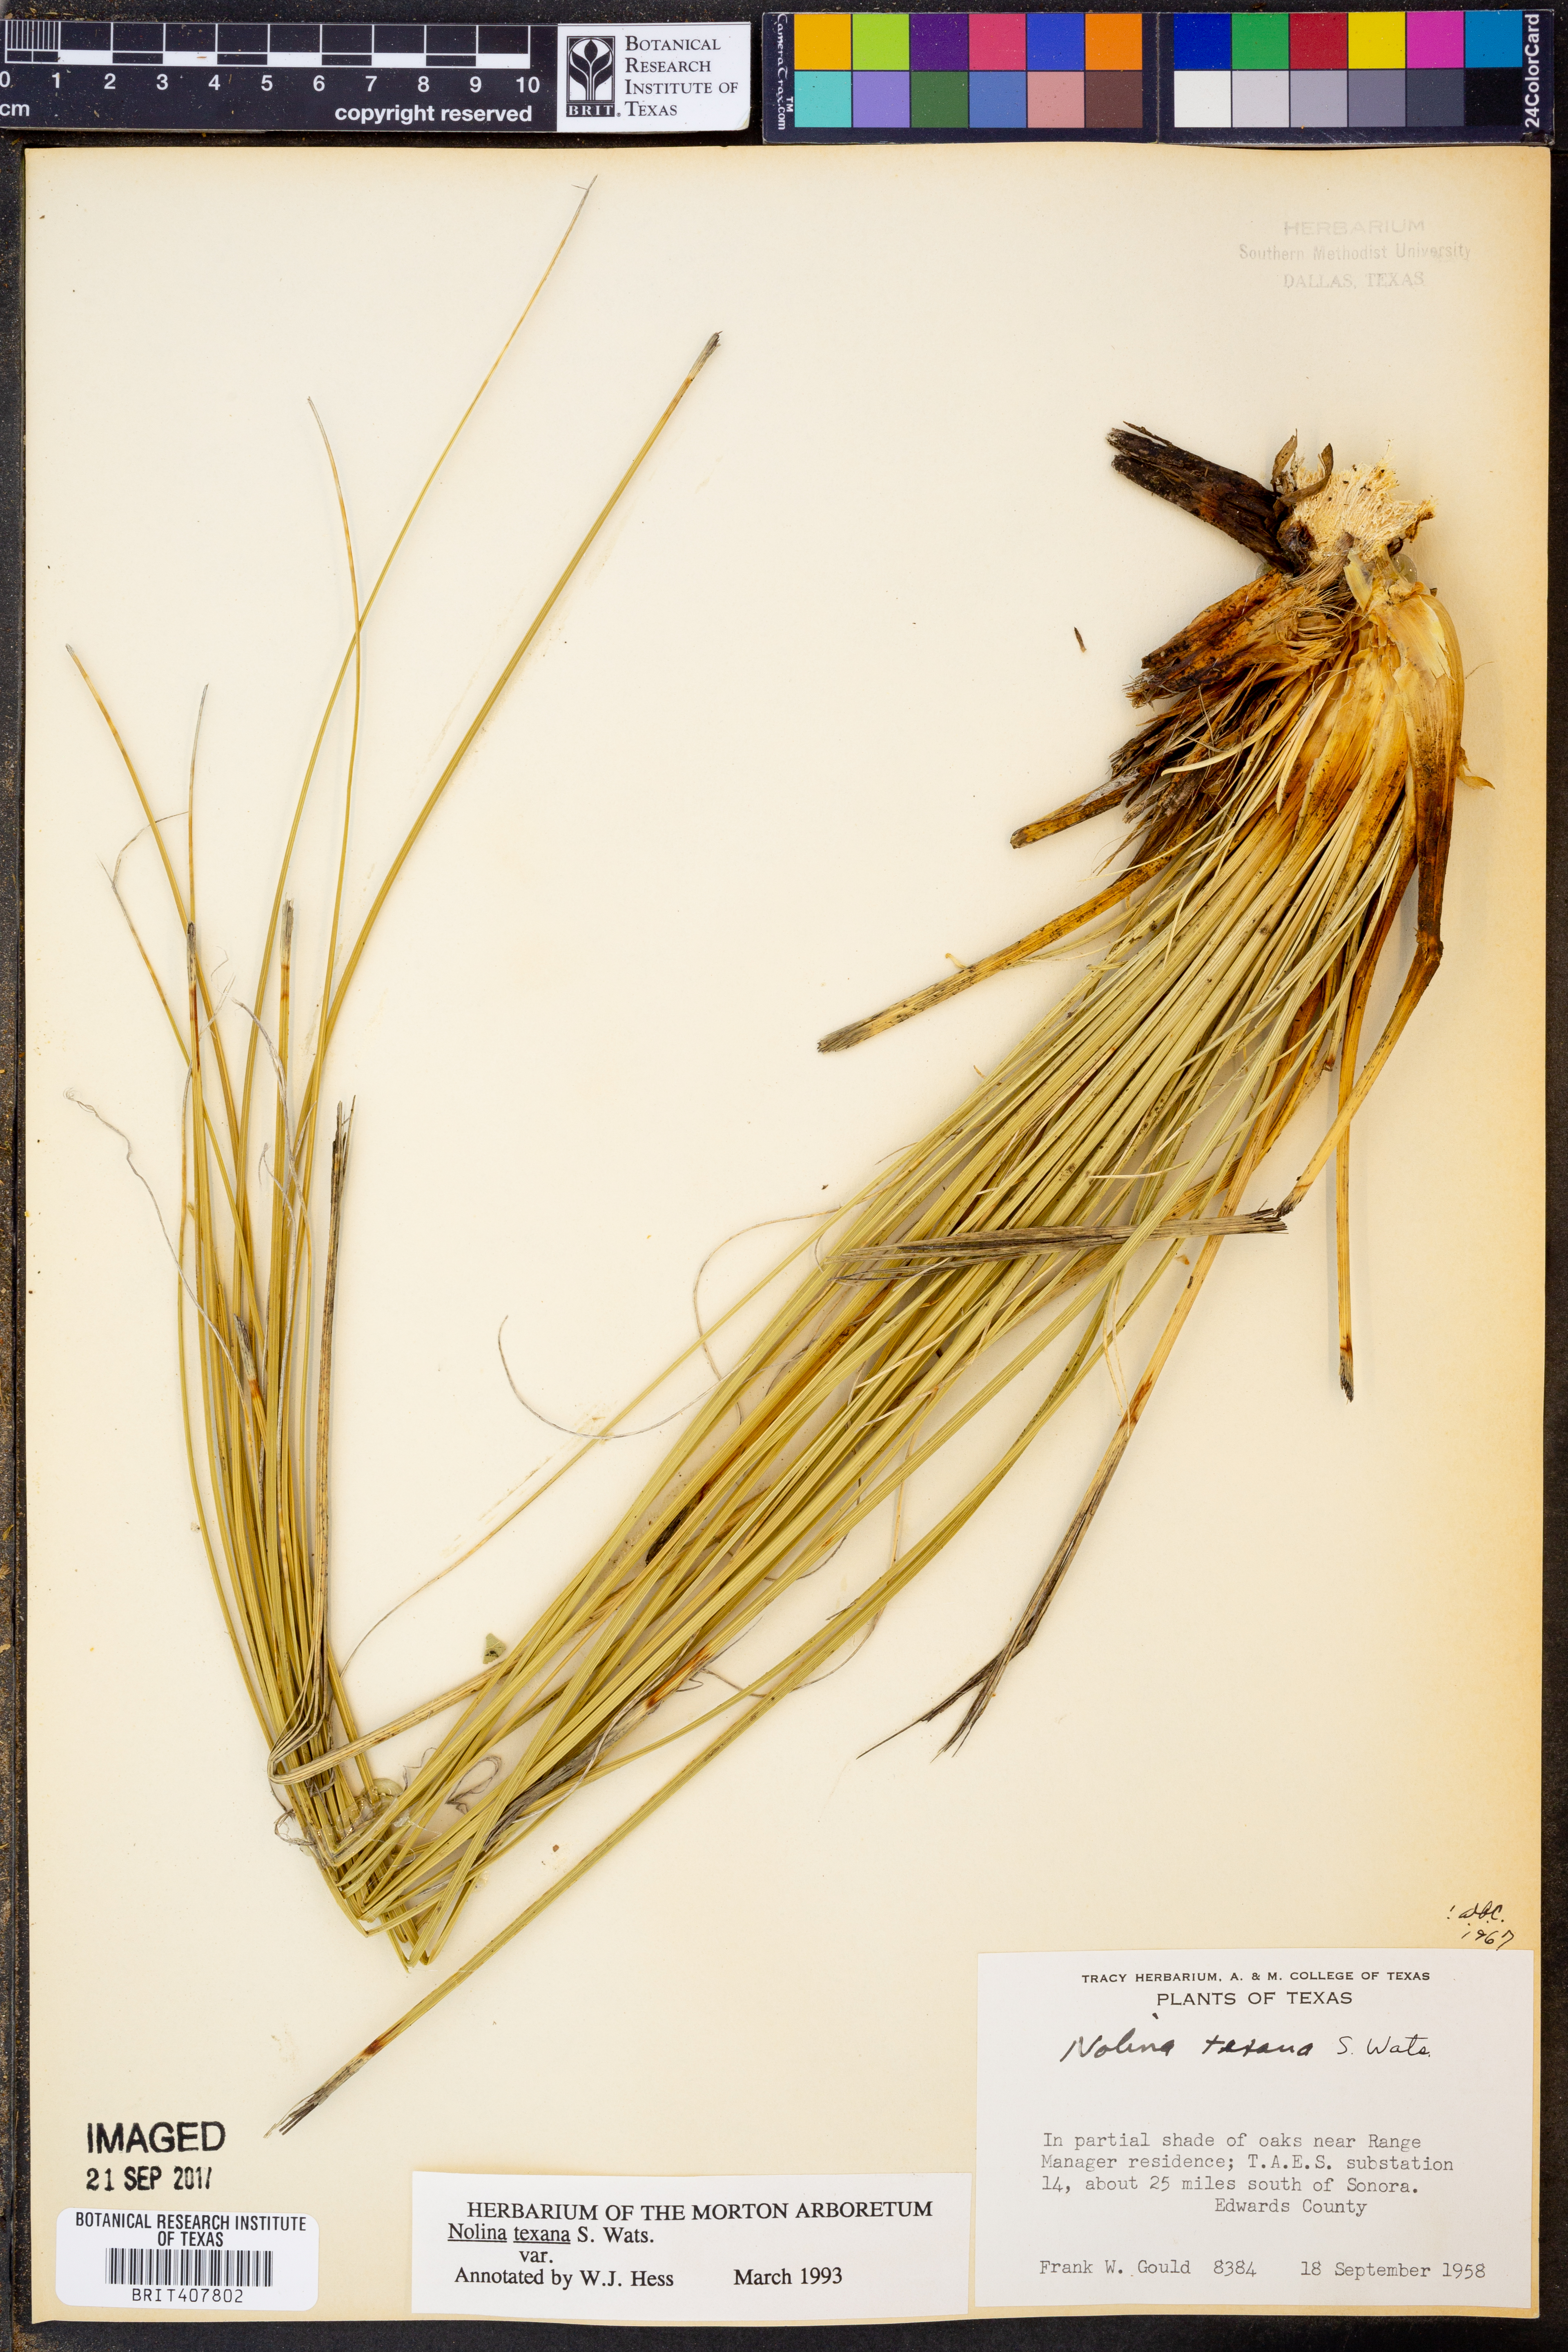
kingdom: Plantae
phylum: Tracheophyta
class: Liliopsida
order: Asparagales
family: Asparagaceae
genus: Nolina
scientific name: Nolina texana
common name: Texas sacahuiste
